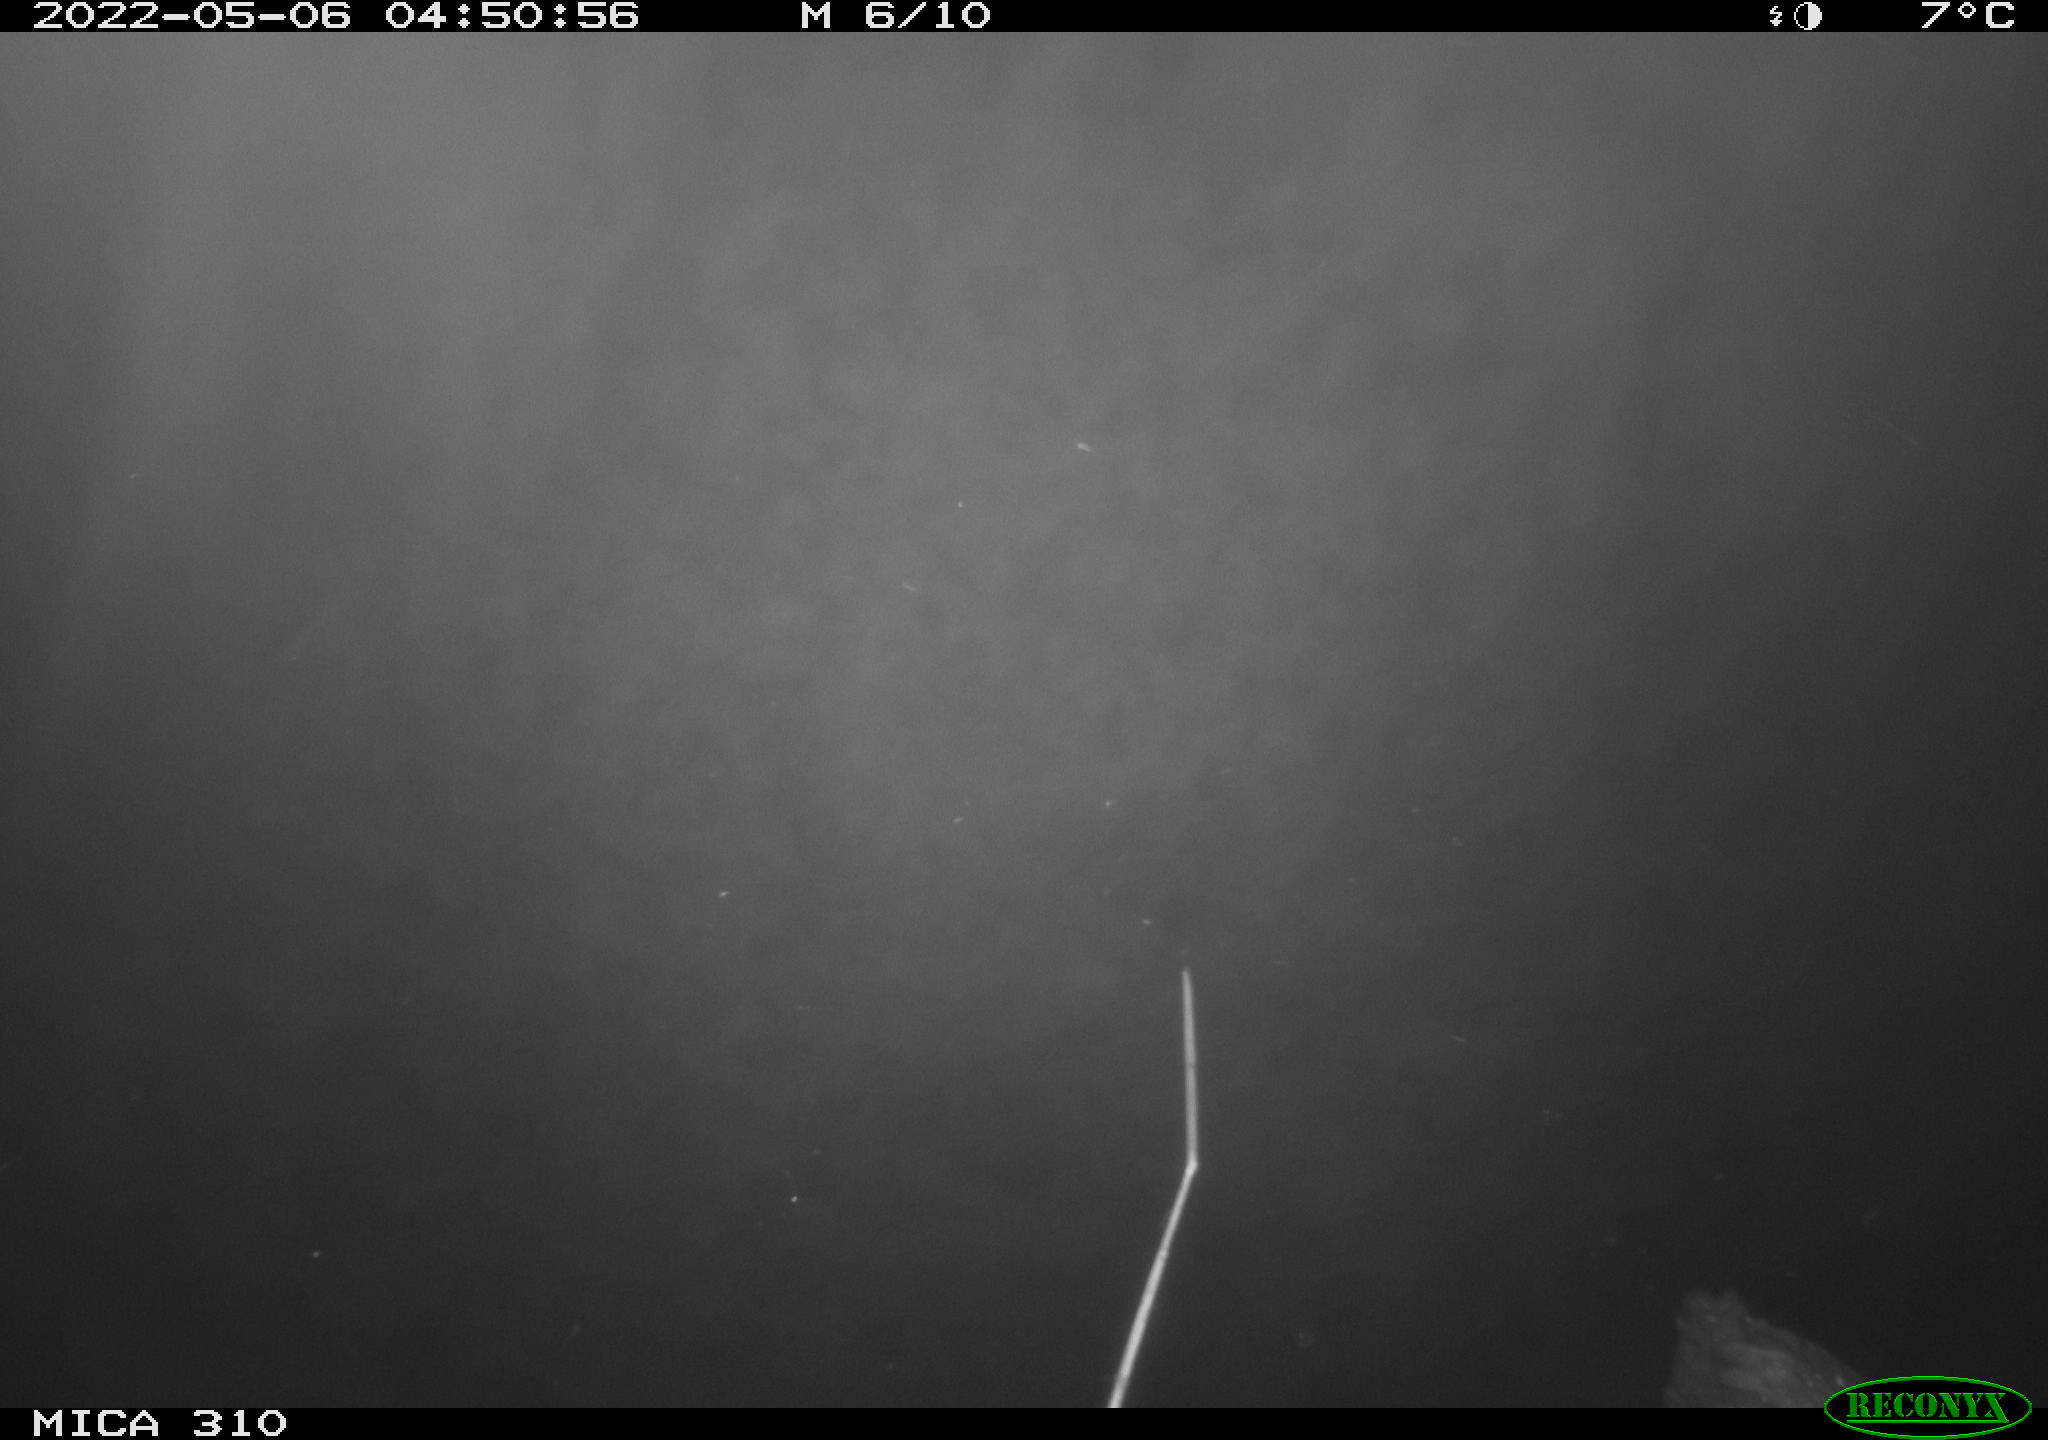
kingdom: Animalia
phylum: Chordata
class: Aves
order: Gruiformes
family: Rallidae
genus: Fulica
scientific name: Fulica atra
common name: Eurasian coot
